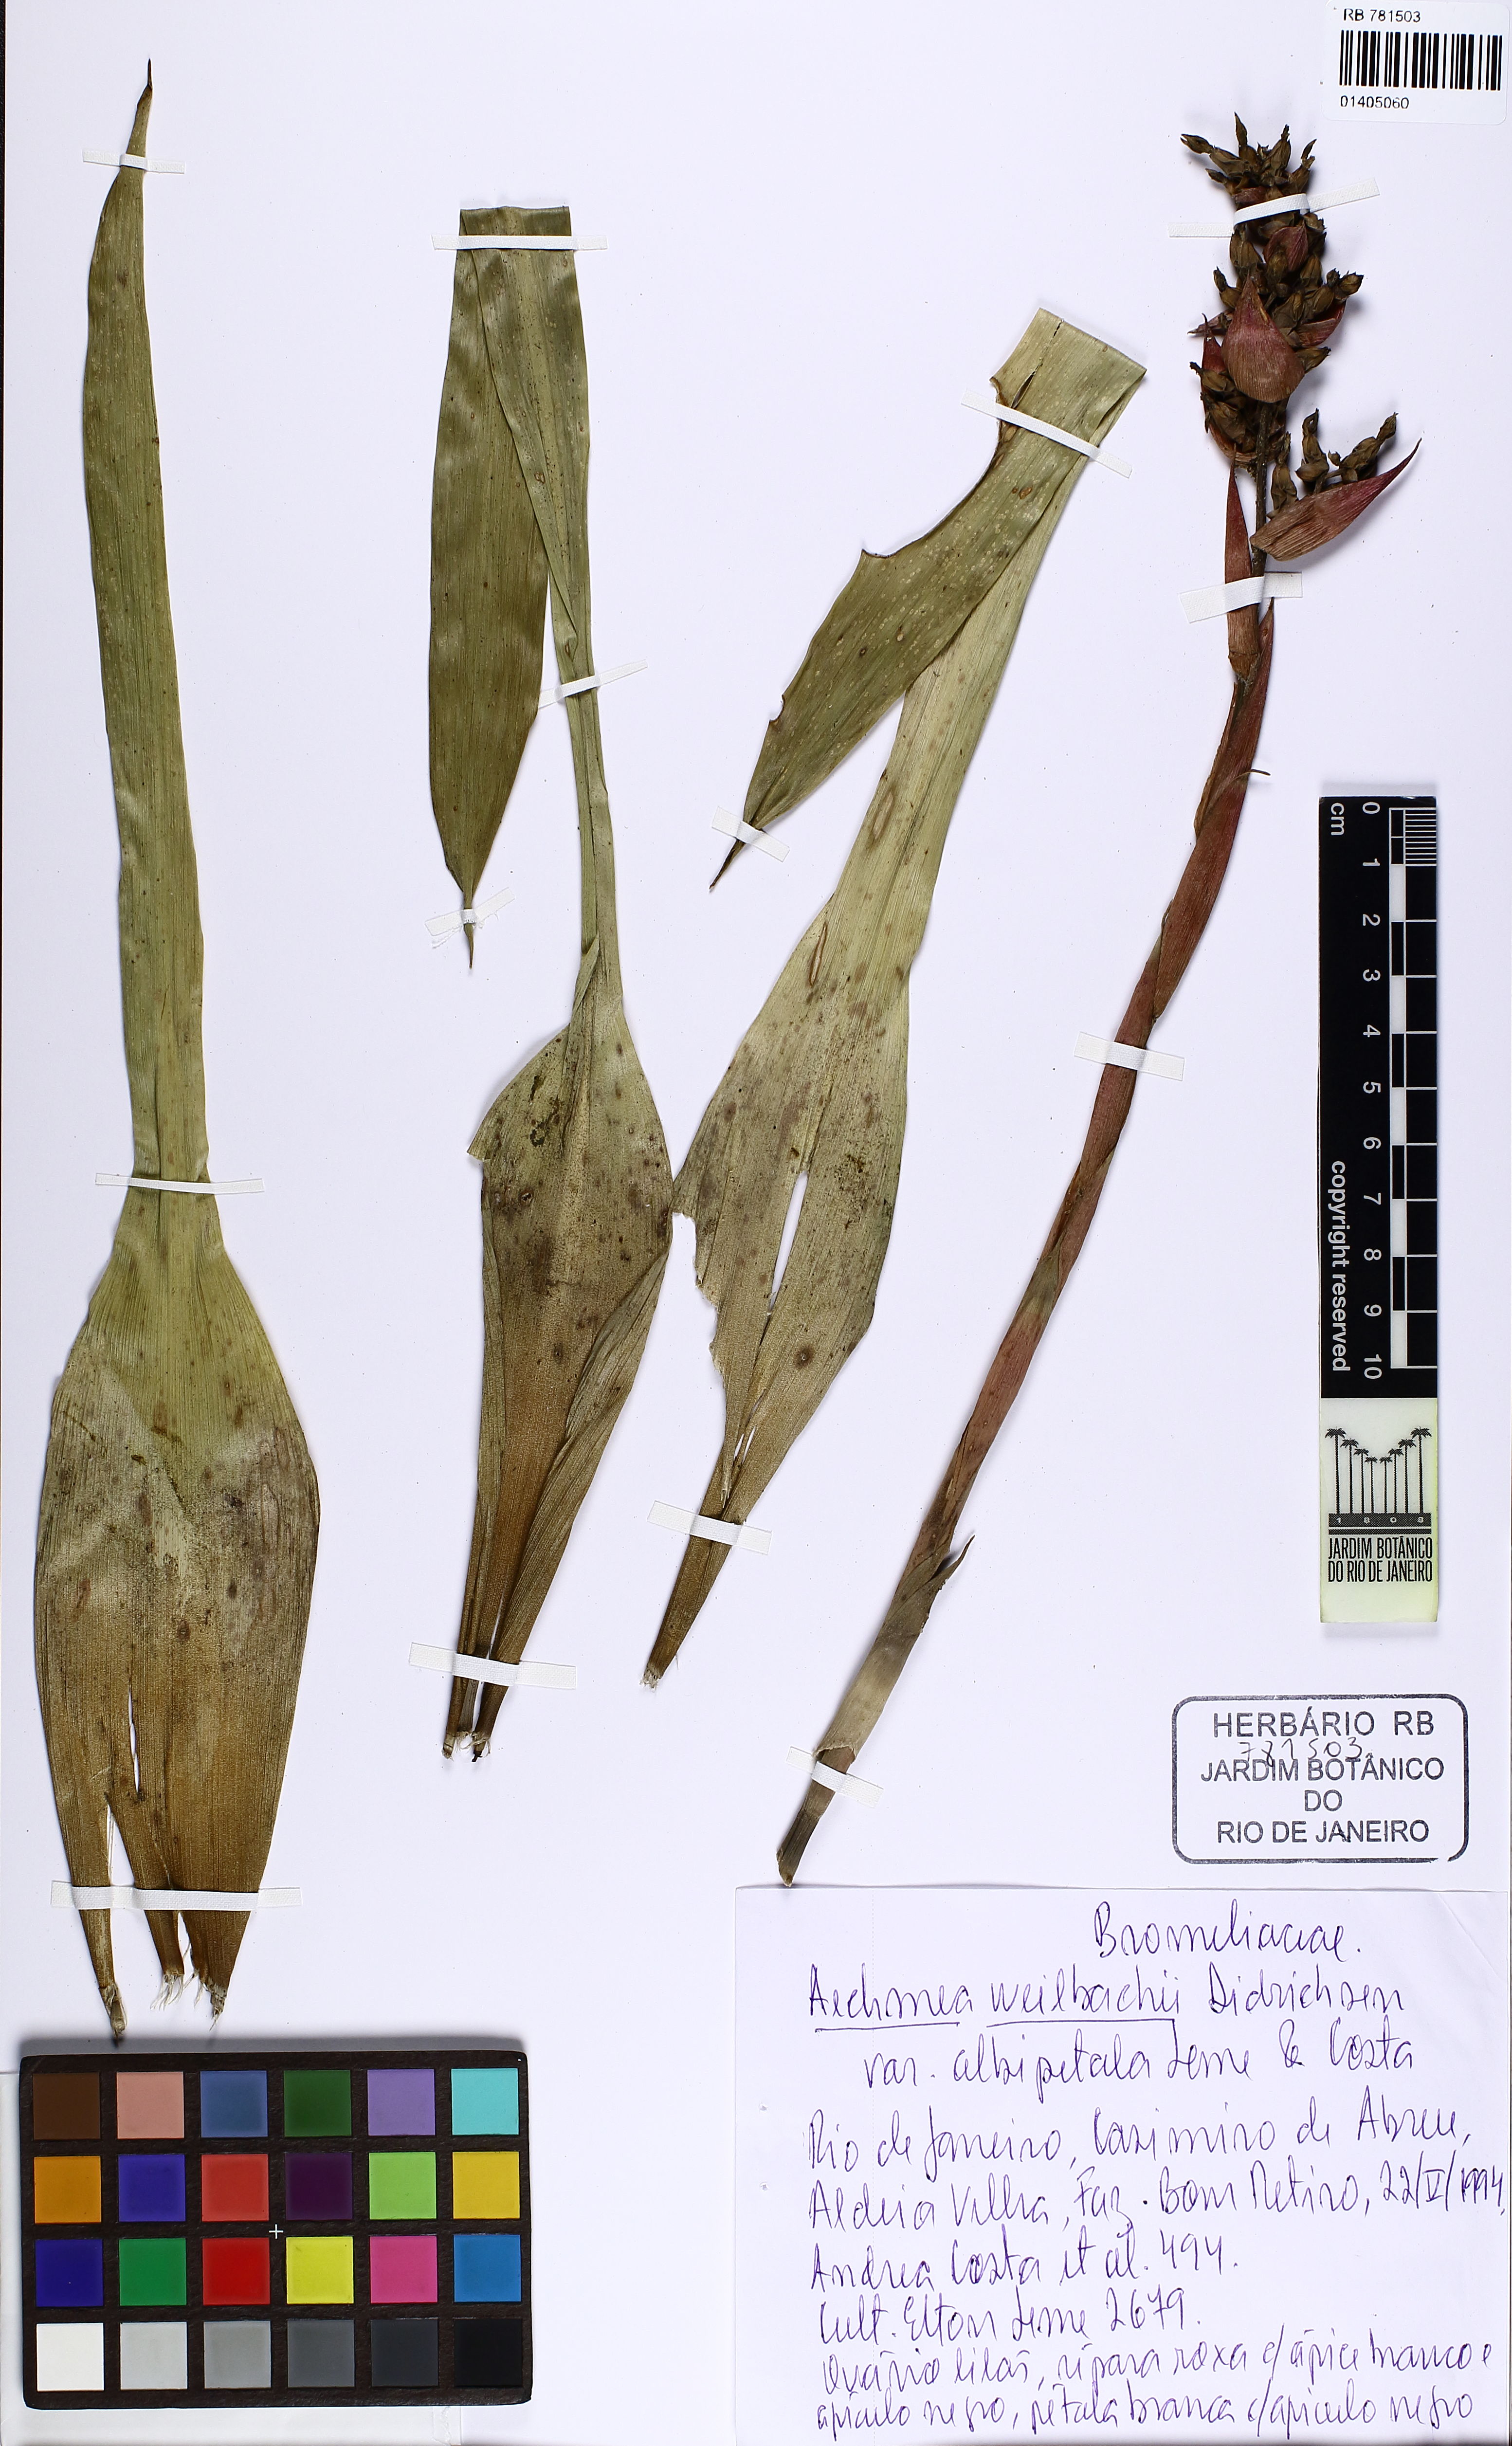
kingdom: Plantae
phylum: Tracheophyta
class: Liliopsida
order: Poales
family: Bromeliaceae
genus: Aechmea
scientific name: Aechmea weilbachii
